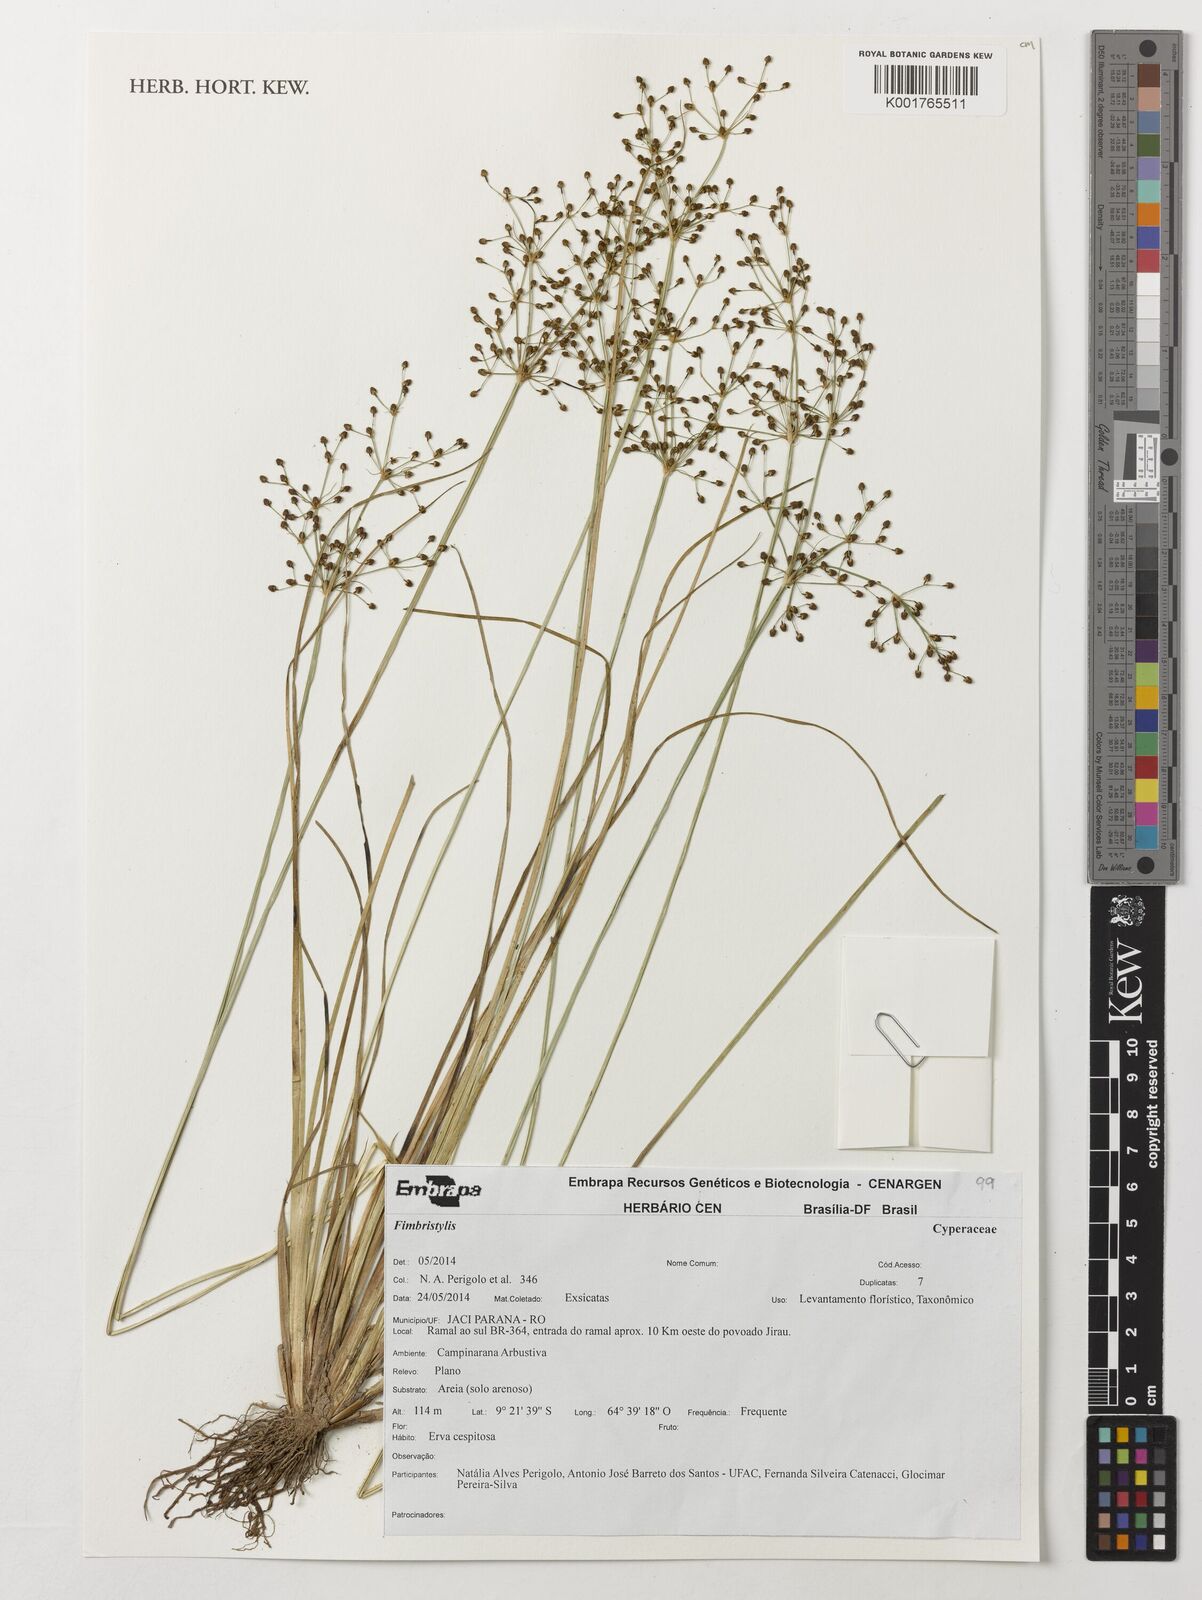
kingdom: Plantae
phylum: Tracheophyta
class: Liliopsida
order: Poales
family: Cyperaceae
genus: Fimbristylis
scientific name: Fimbristylis
